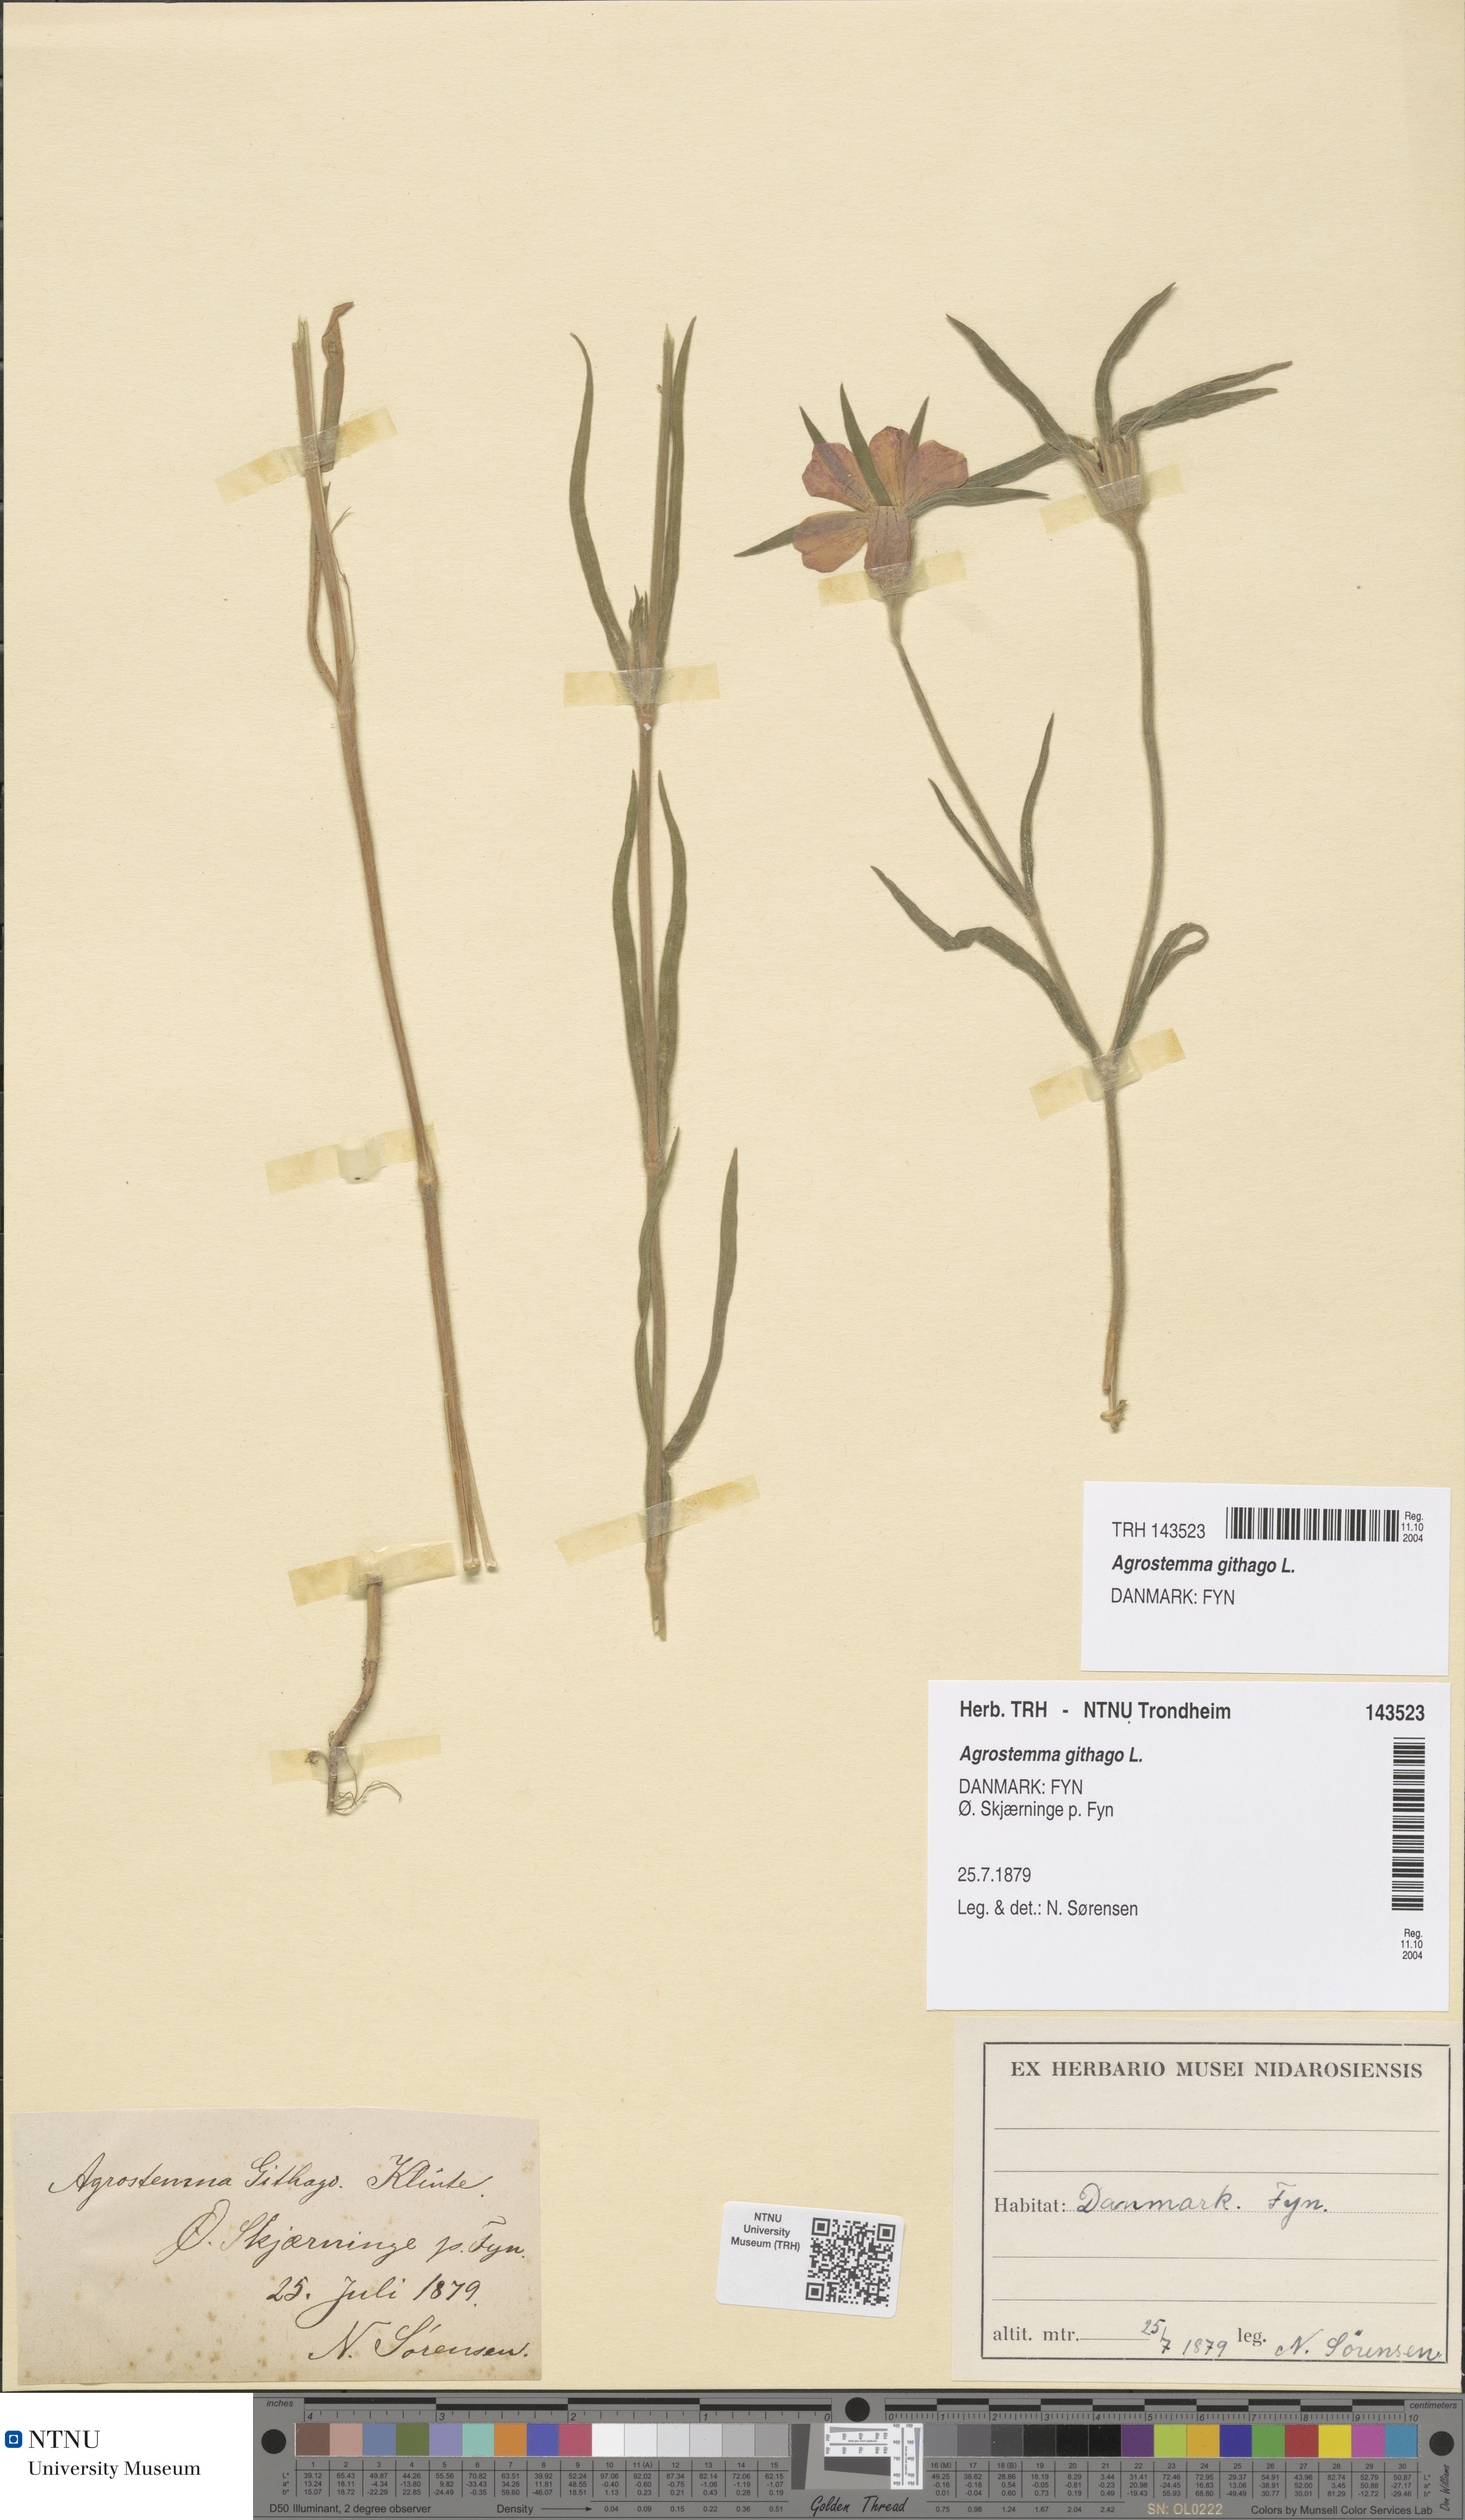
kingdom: Plantae
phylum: Tracheophyta
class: Magnoliopsida
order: Caryophyllales
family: Caryophyllaceae
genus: Agrostemma
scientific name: Agrostemma githago
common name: Common corncockle
